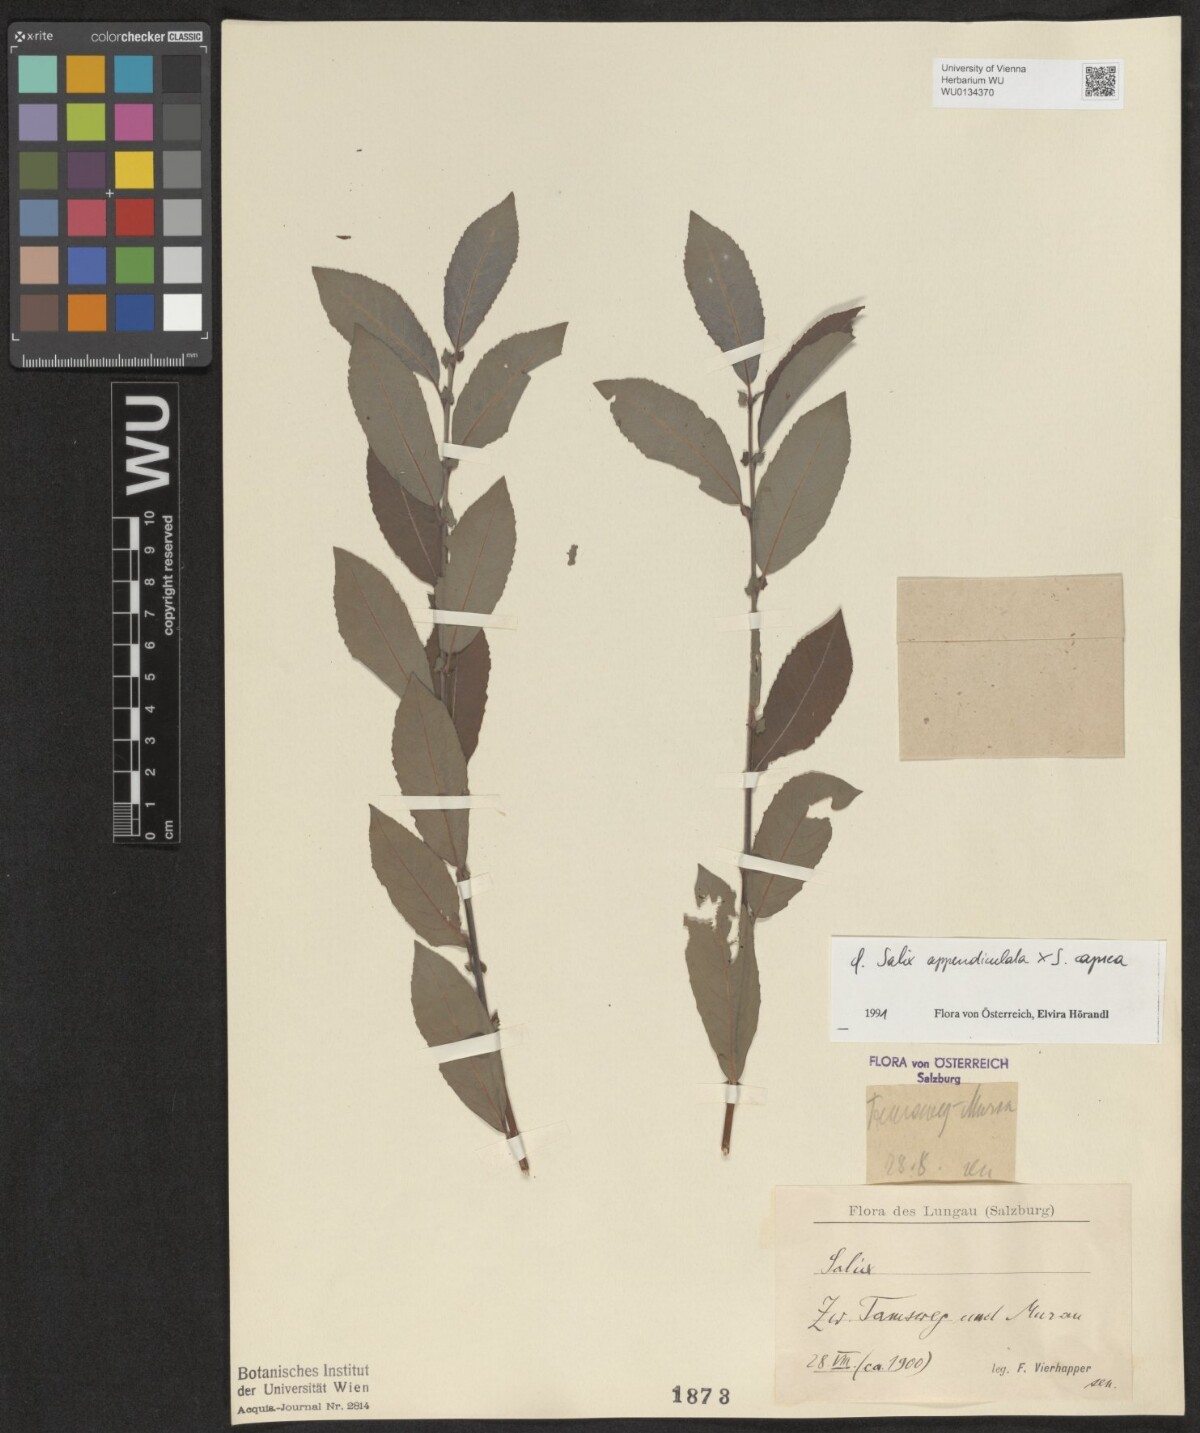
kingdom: Plantae
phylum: Tracheophyta
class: Magnoliopsida
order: Malpighiales
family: Salicaceae
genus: Salix
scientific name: Salix appendiculata
